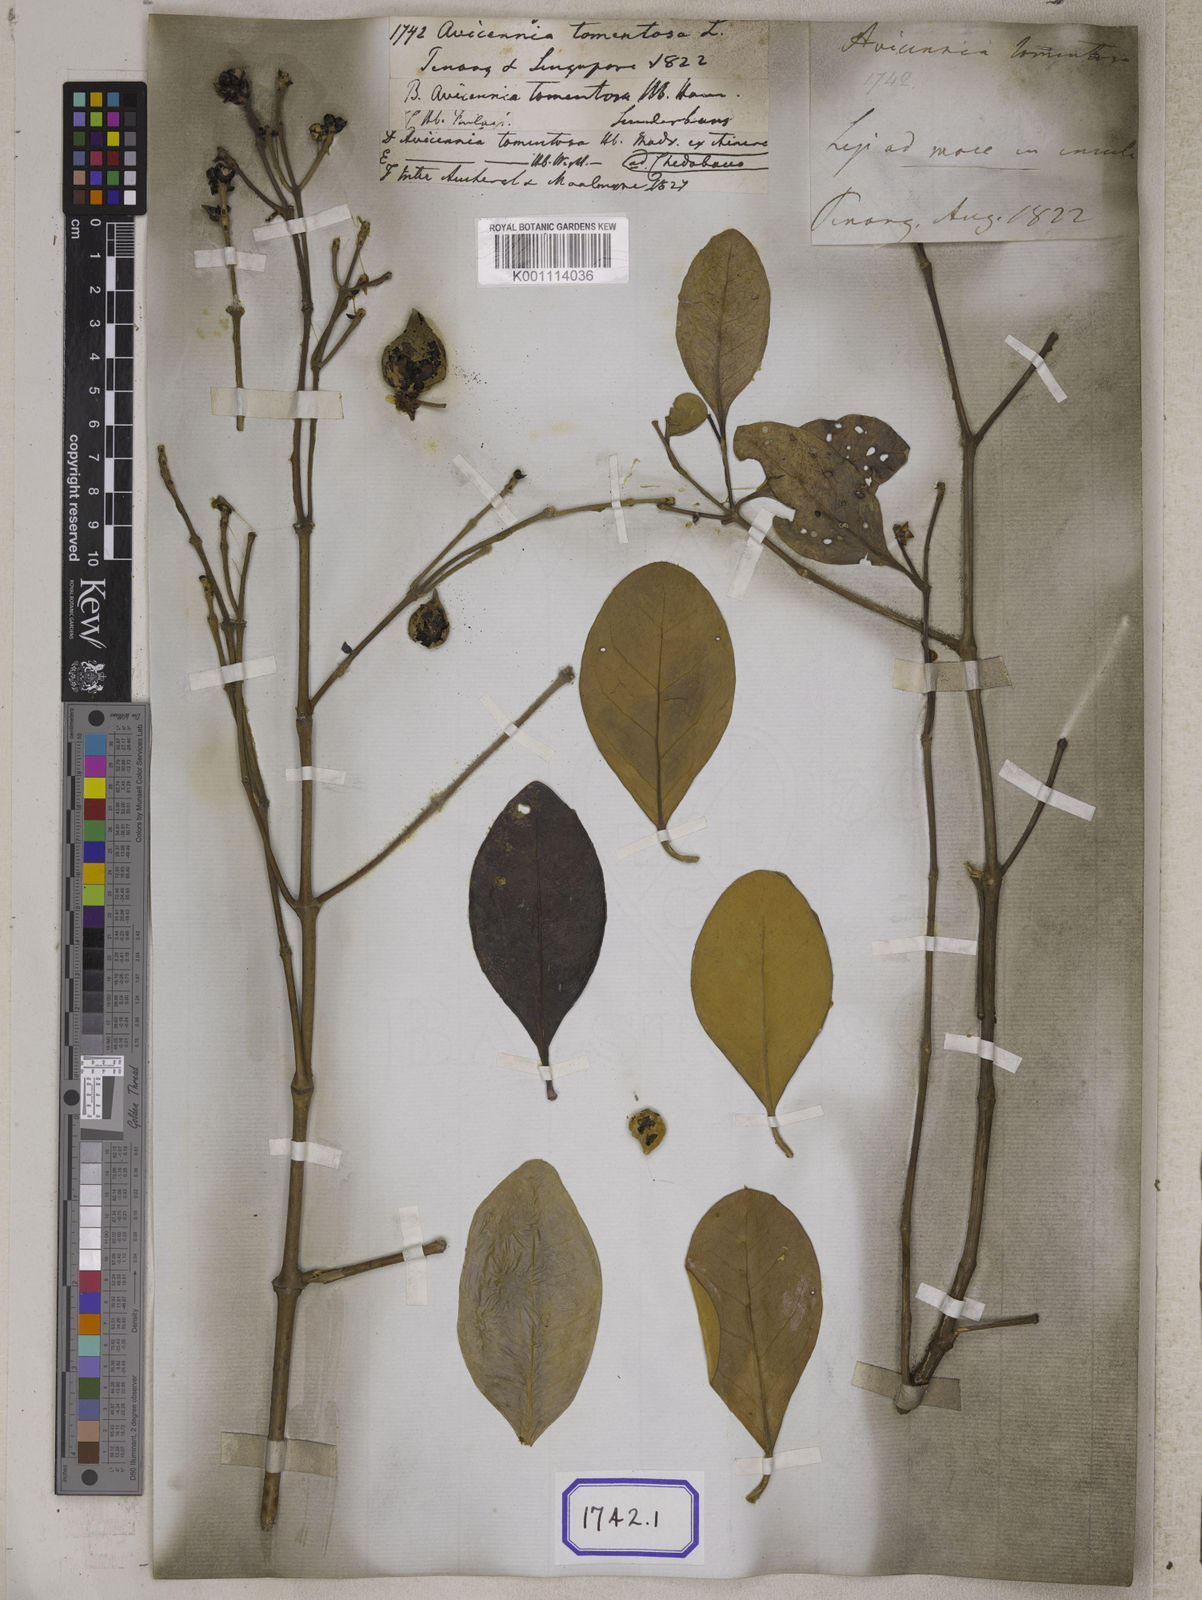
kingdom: Plantae
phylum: Tracheophyta
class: Magnoliopsida
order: Lamiales
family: Acanthaceae
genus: Avicennia
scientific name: Avicennia germinans
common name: Black mangrove
